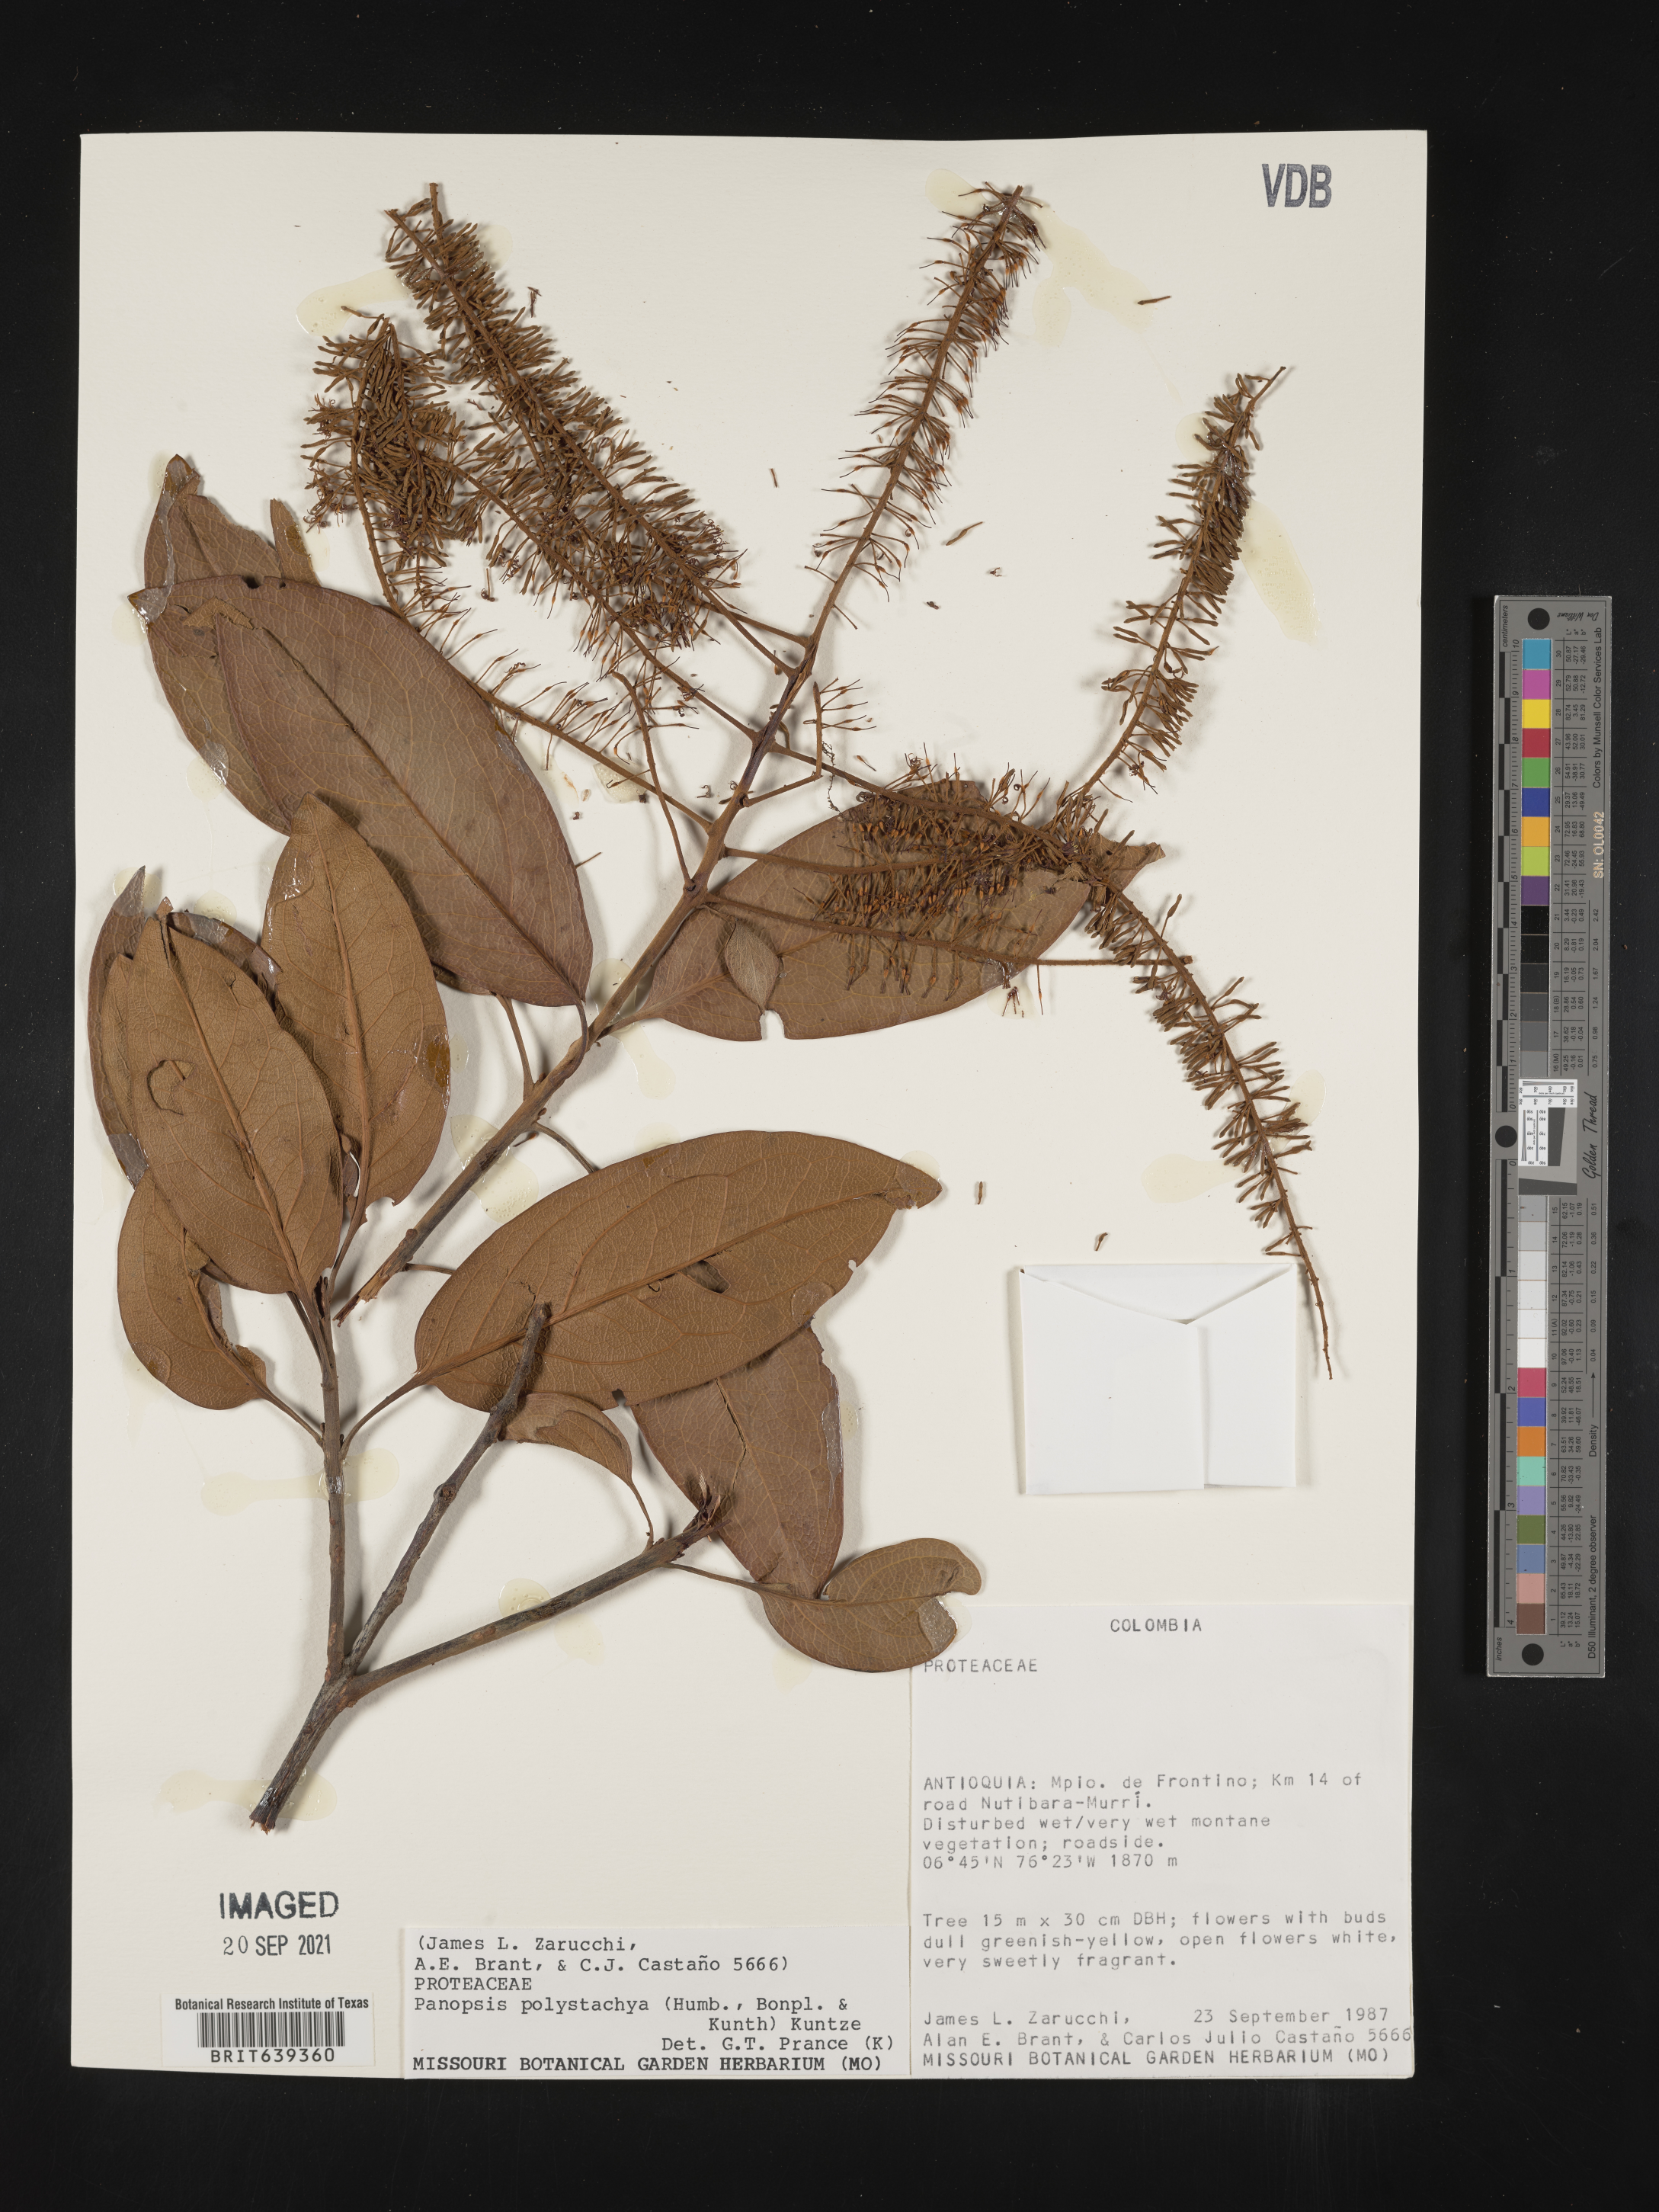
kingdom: Plantae
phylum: Tracheophyta
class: Magnoliopsida
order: Proteales
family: Proteaceae
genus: Panopsis
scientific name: Panopsis
